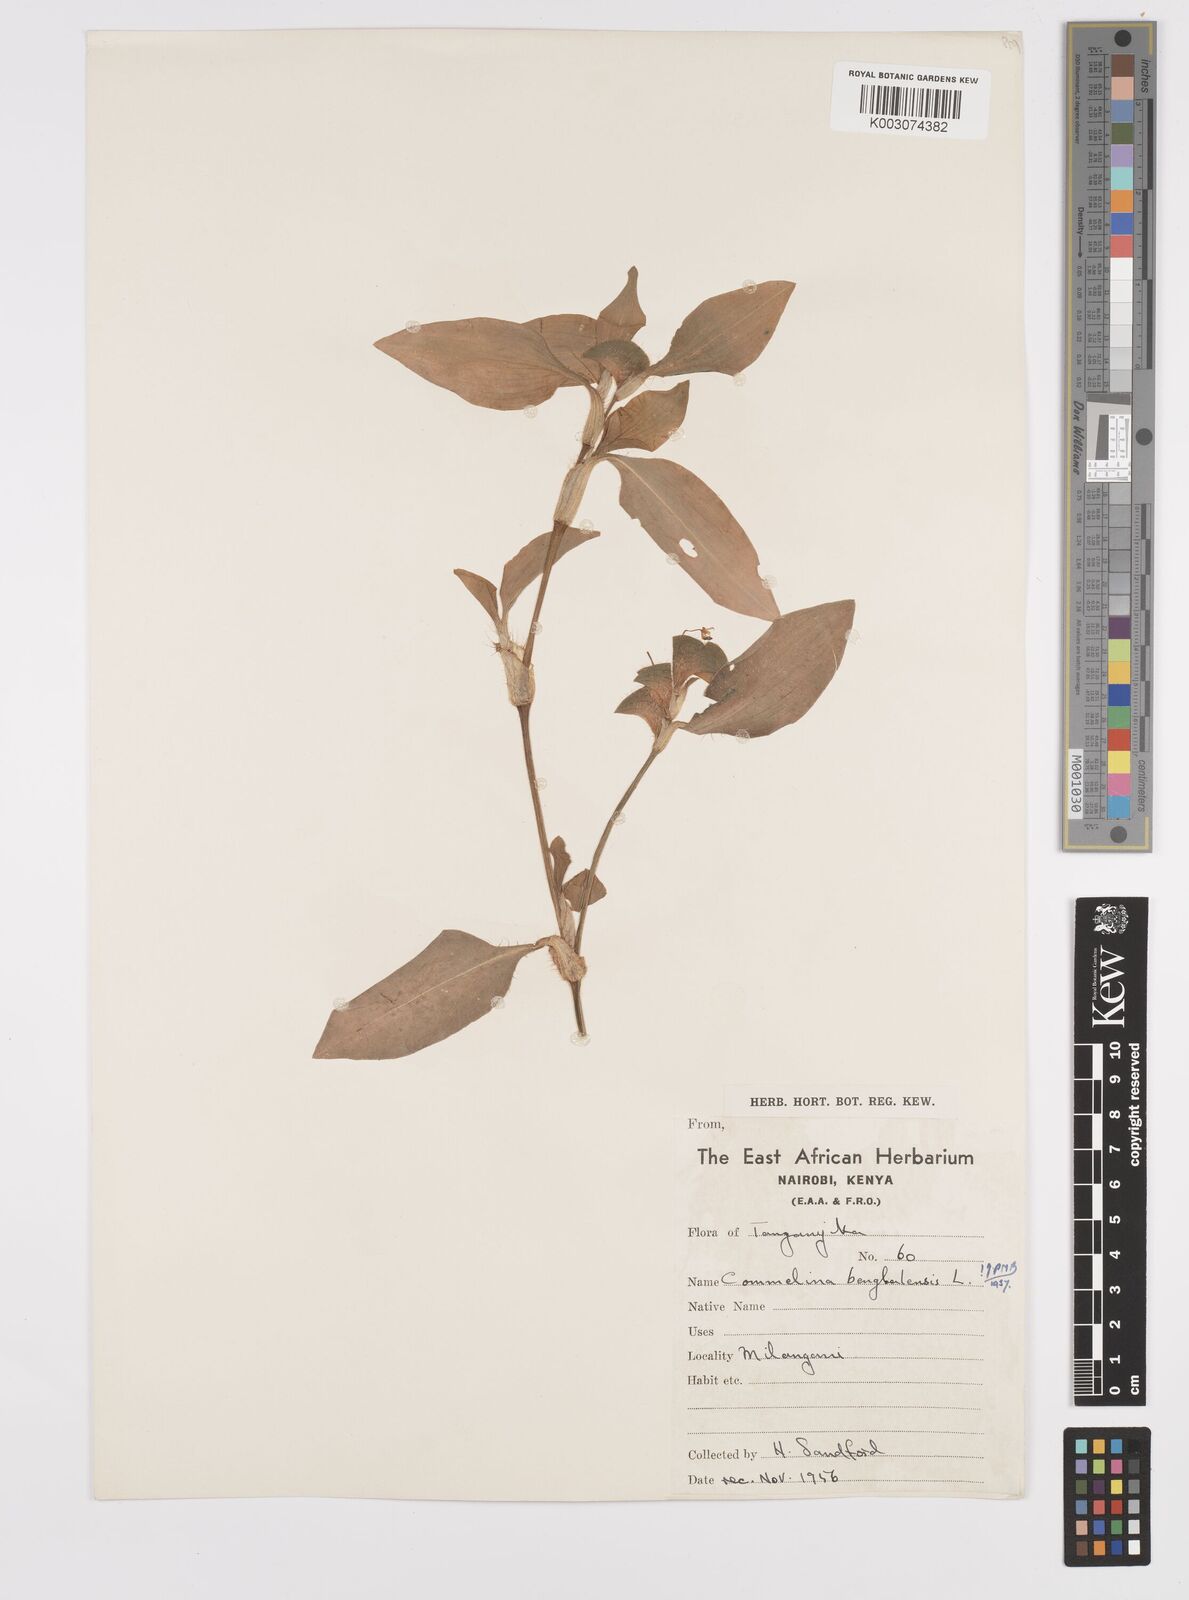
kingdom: Plantae
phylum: Tracheophyta
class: Liliopsida
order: Commelinales
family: Commelinaceae
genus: Commelina
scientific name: Commelina benghalensis
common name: Jio
